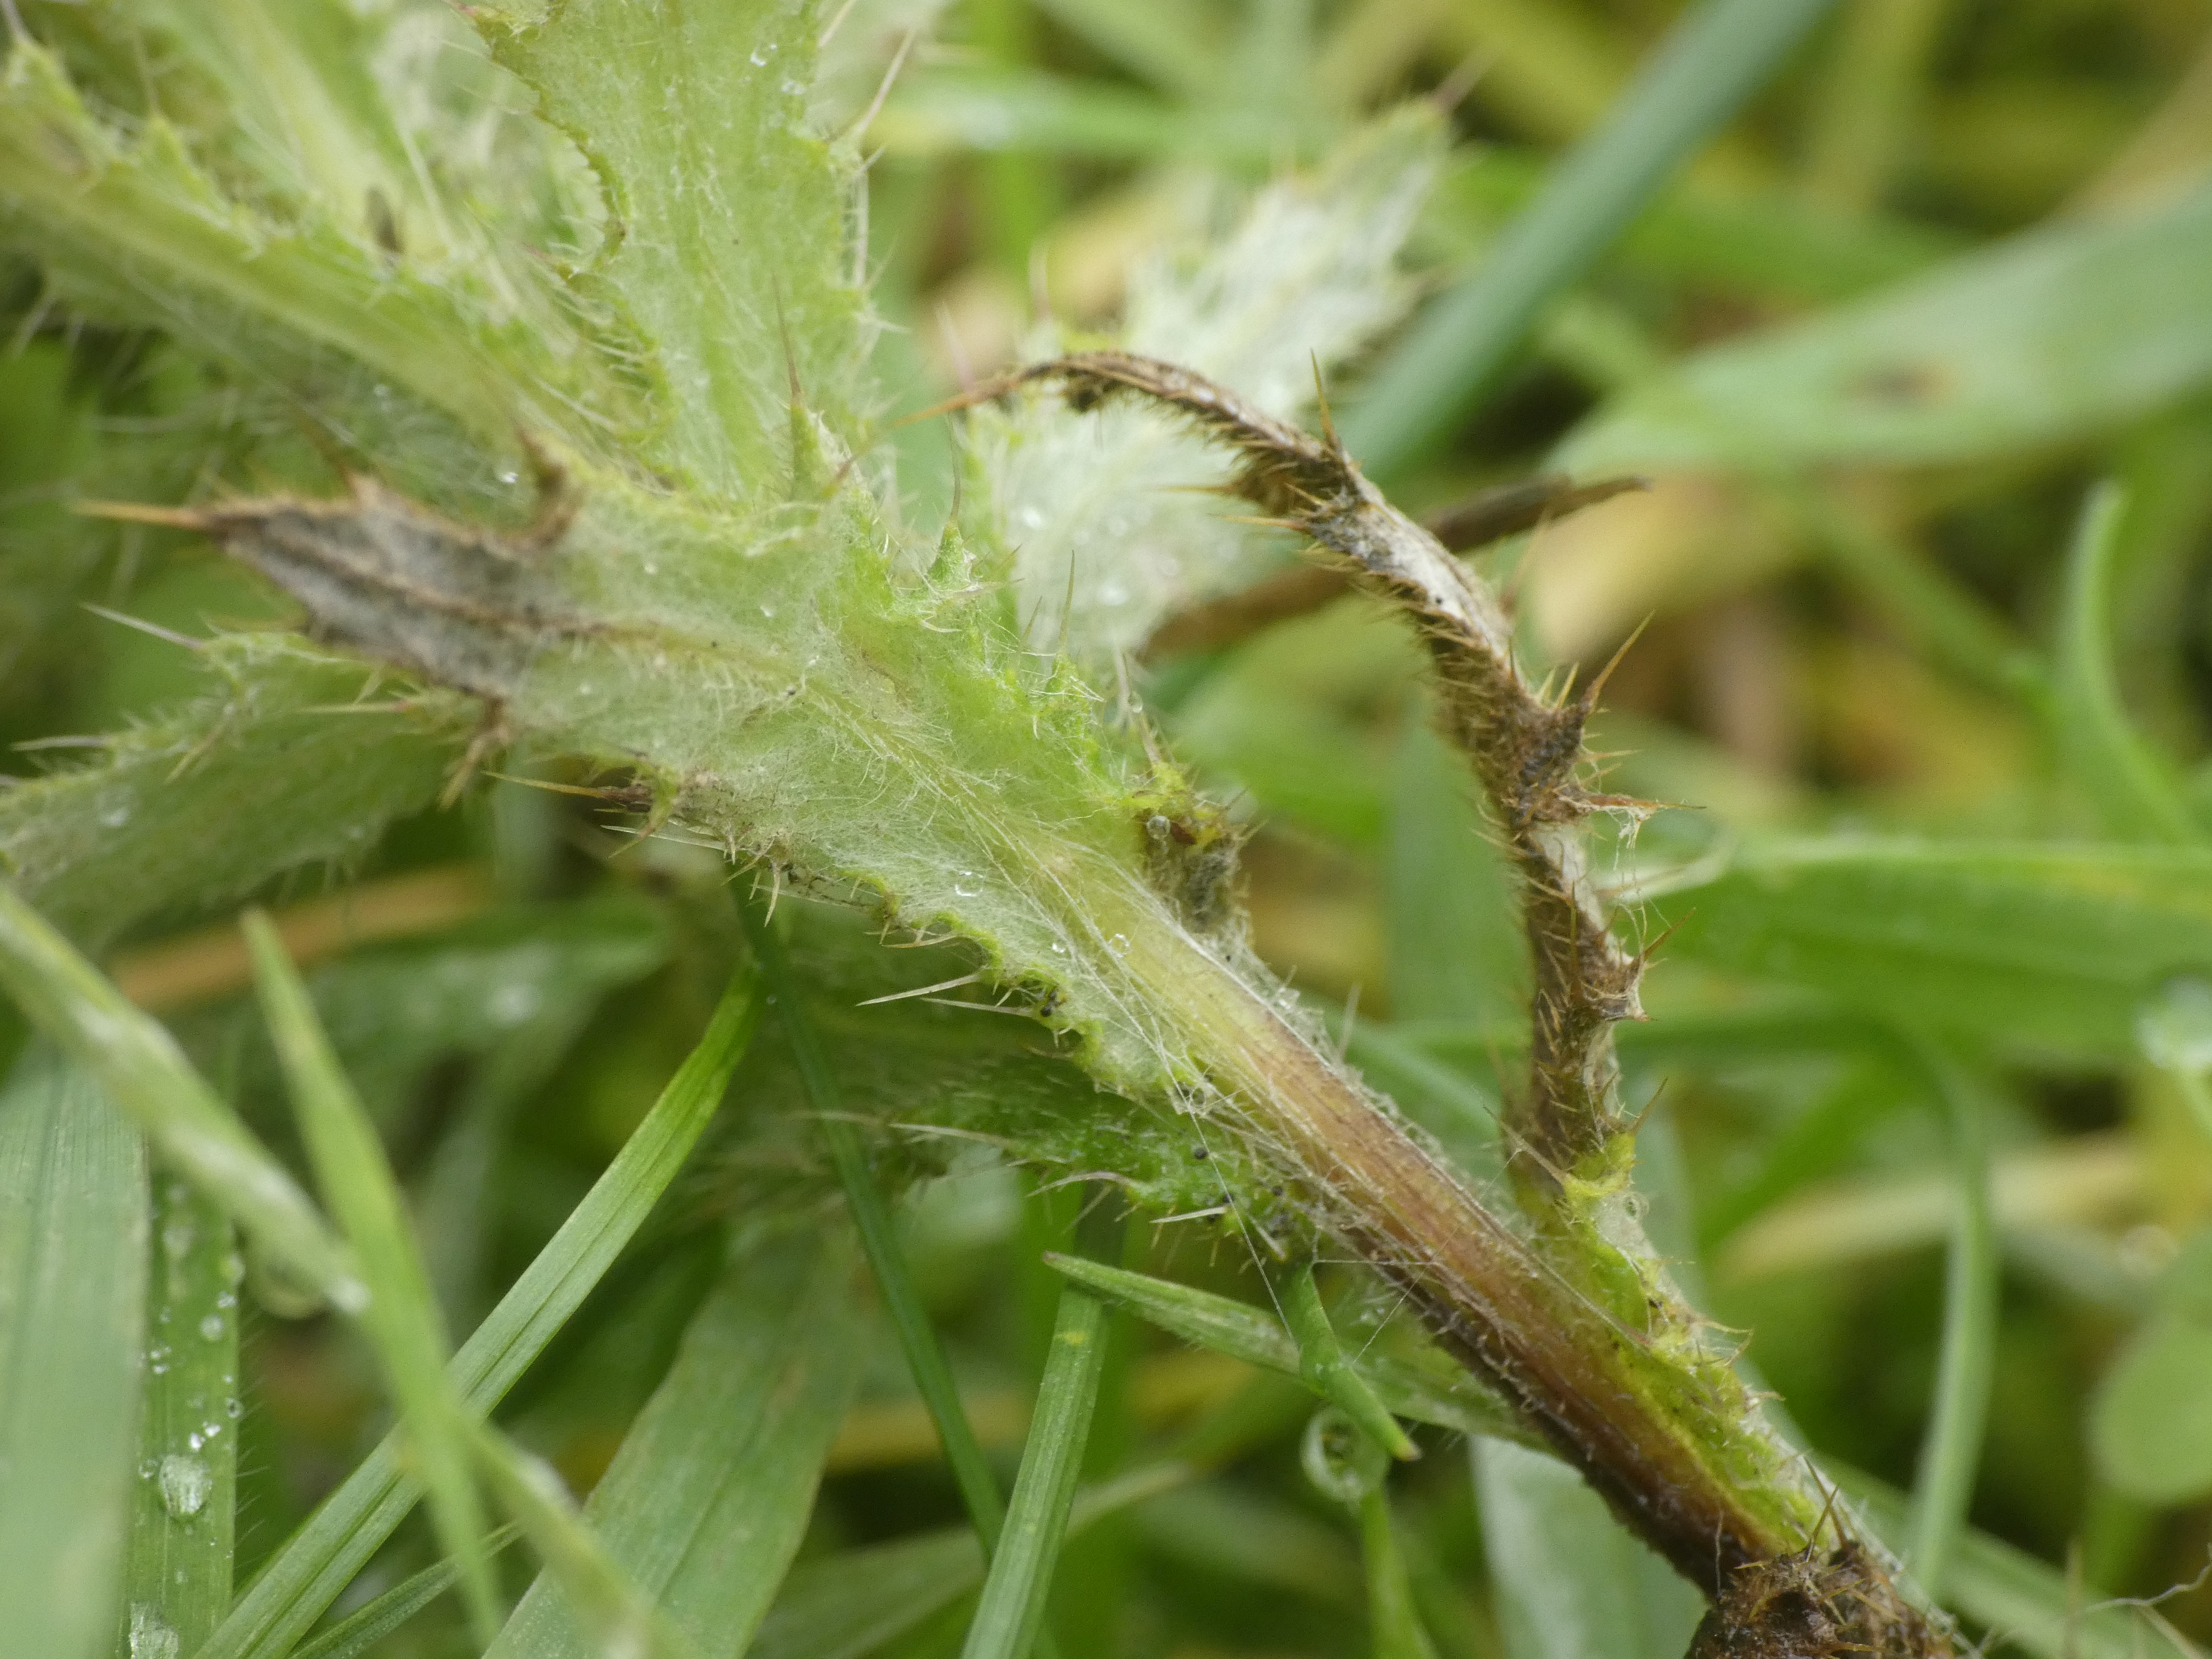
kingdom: Plantae
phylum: Tracheophyta
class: Magnoliopsida
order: Asterales
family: Asteraceae
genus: Cirsium
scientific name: Cirsium vulgare
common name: Horse-tidsel
